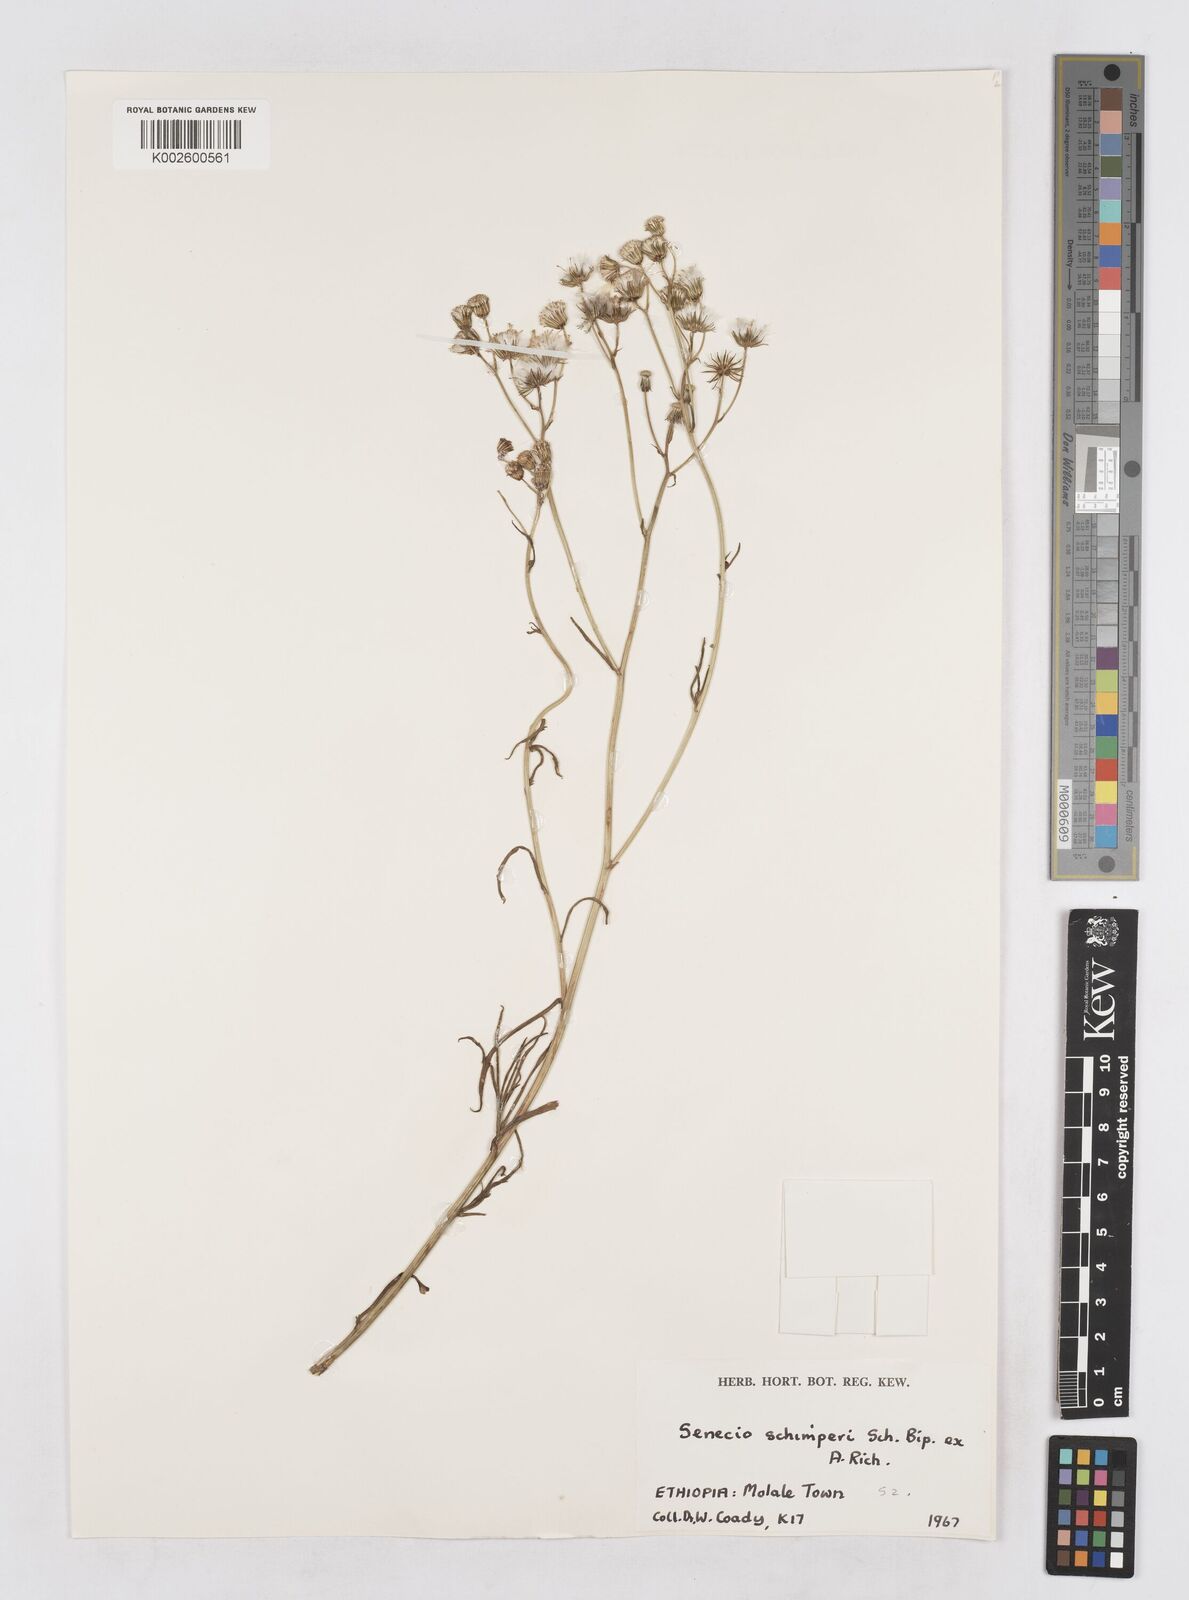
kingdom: Plantae
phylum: Tracheophyta
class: Magnoliopsida
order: Asterales
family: Asteraceae
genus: Senecio
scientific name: Senecio schimperi
